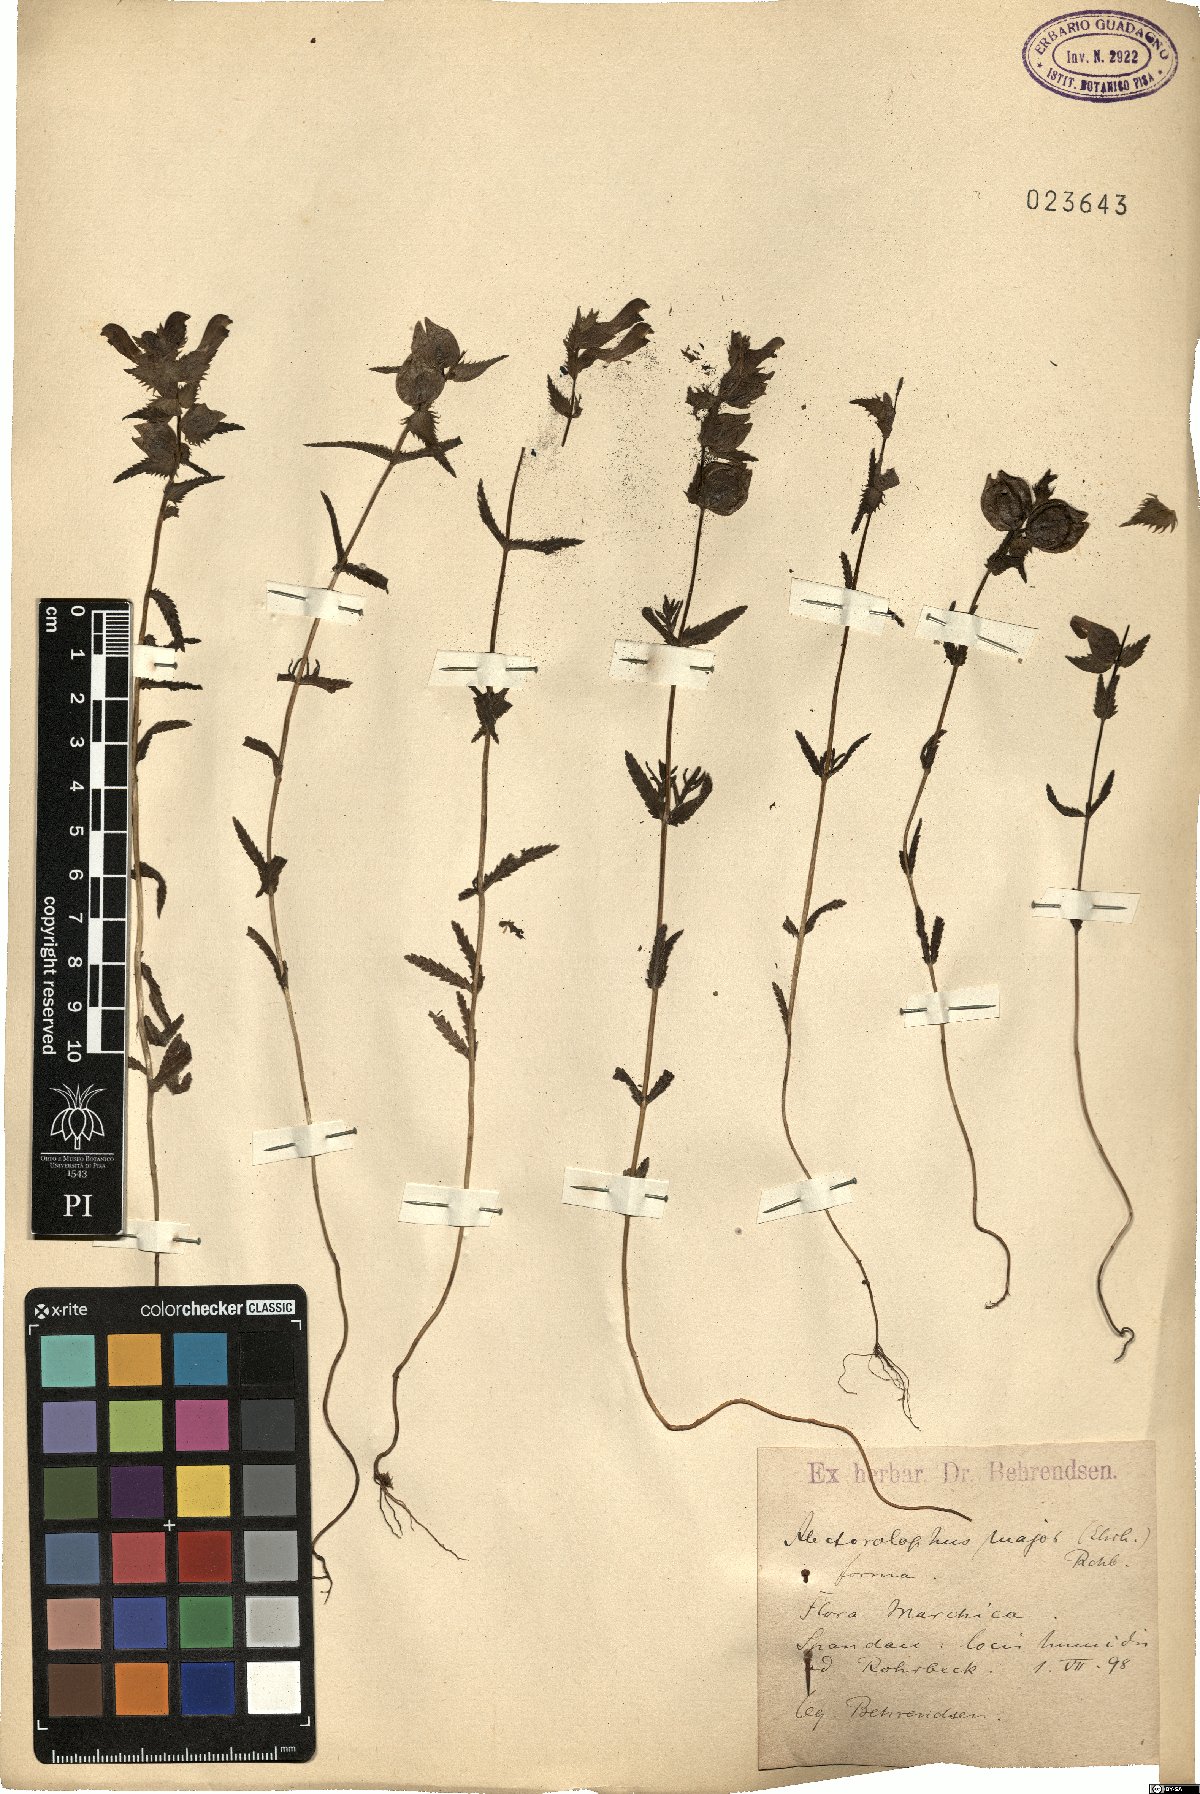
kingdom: Plantae
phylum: Tracheophyta
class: Magnoliopsida
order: Lamiales
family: Orobanchaceae
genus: Rhinanthus
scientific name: Rhinanthus serotinus
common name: Late-flowering yellow rattle
